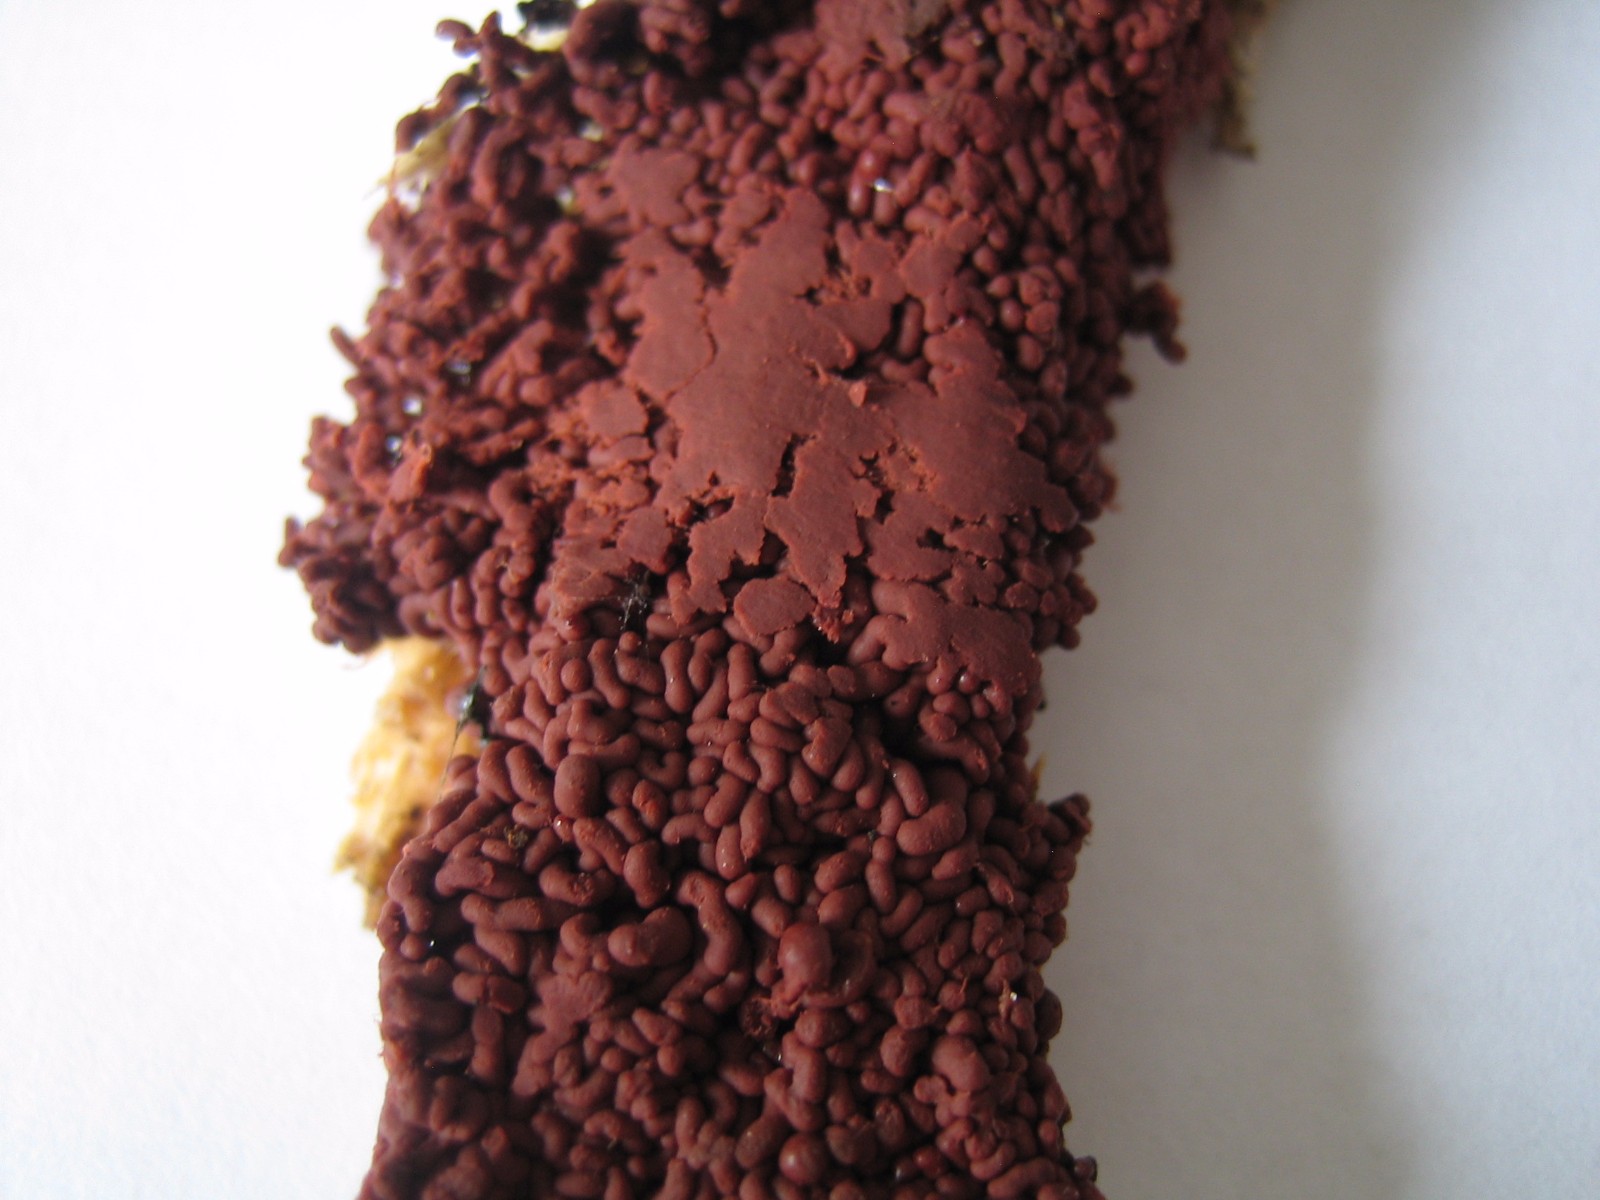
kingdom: Protozoa
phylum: Mycetozoa
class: Myxomycetes
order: Trichiales
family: Arcyriaceae
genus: Arcyria
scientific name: Arcyria stipata
